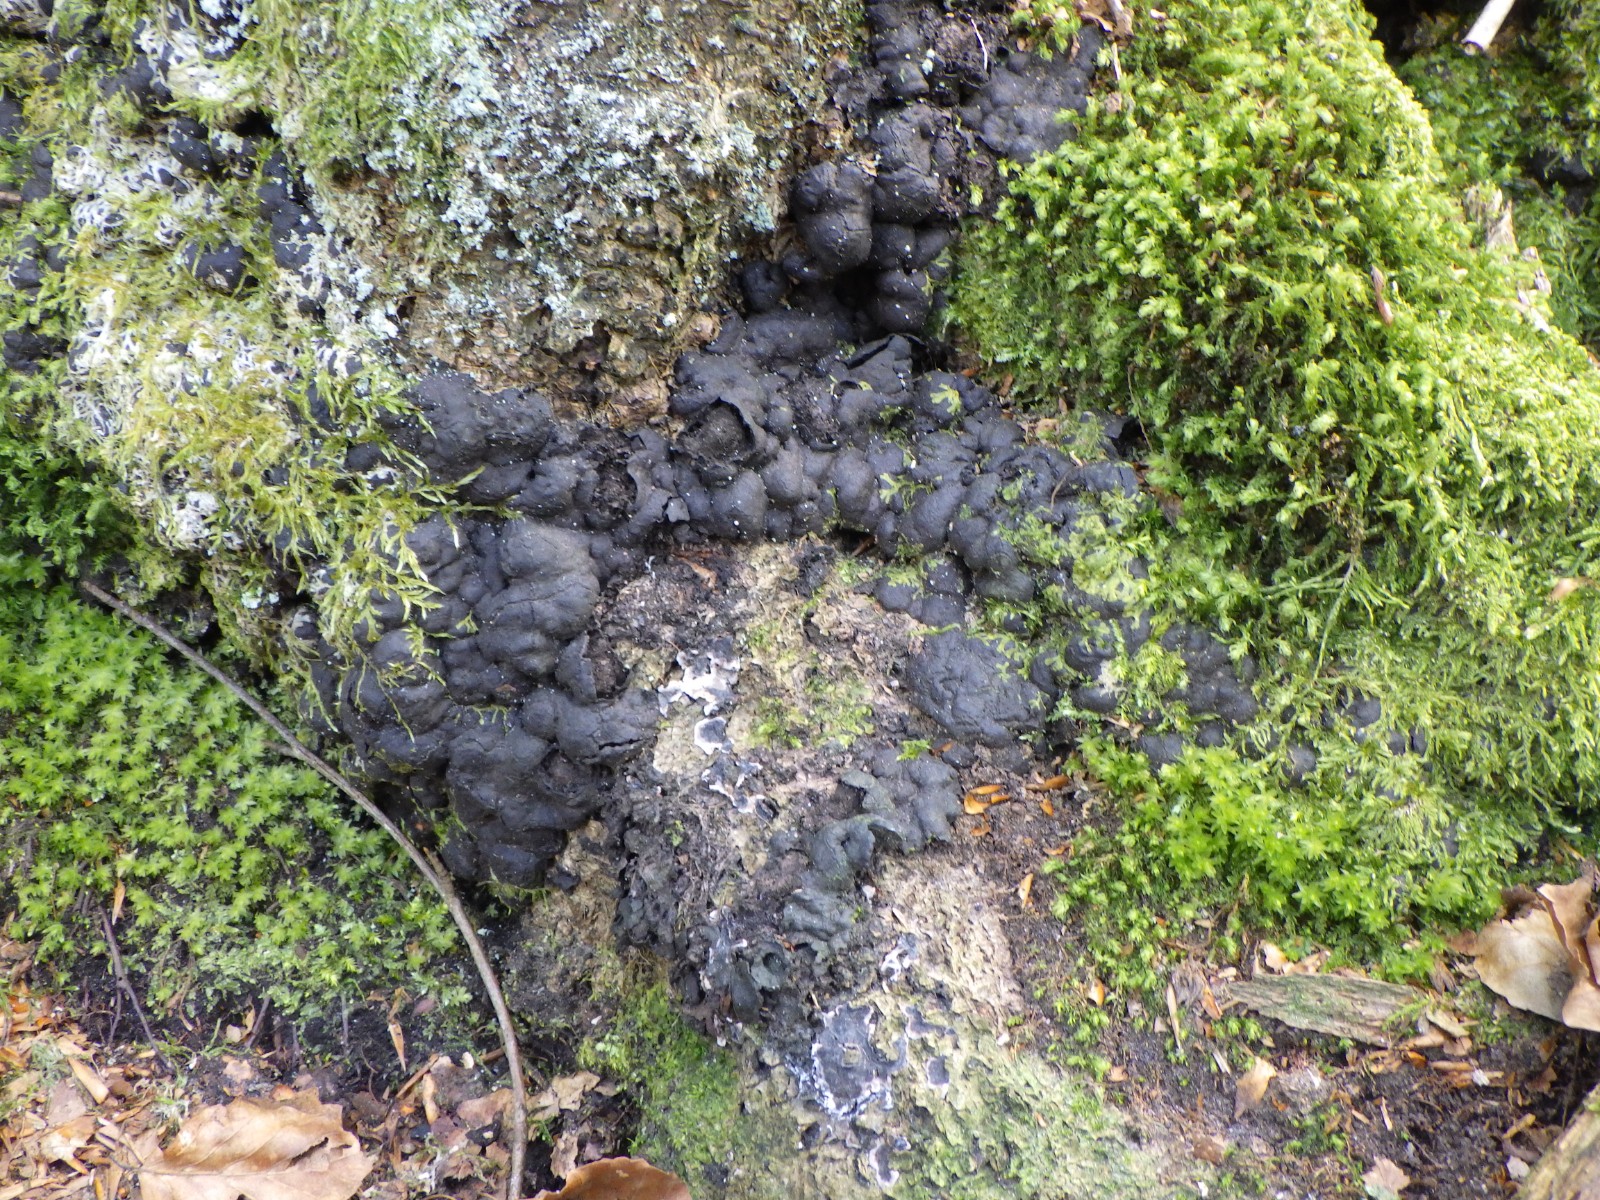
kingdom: Fungi
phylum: Ascomycota
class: Sordariomycetes
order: Xylariales
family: Xylariaceae
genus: Kretzschmaria
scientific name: Kretzschmaria deusta
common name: stor kulsvamp
